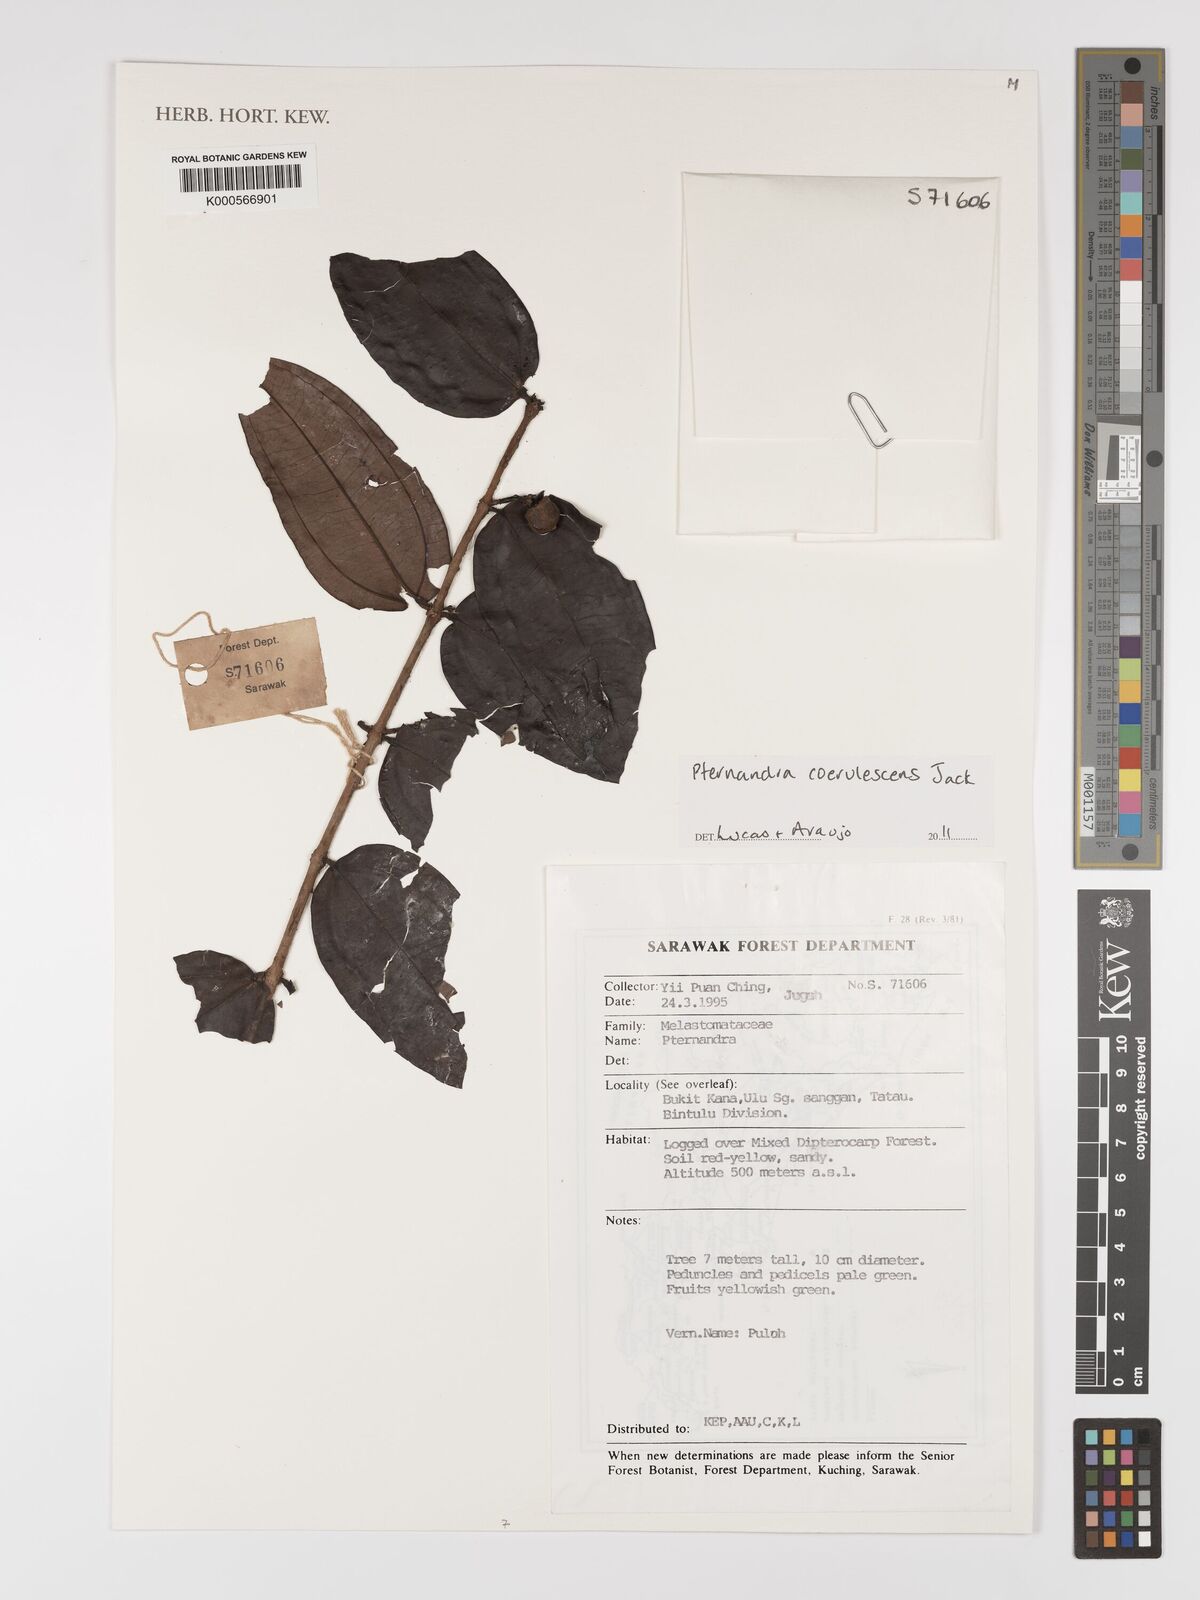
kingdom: Plantae
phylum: Tracheophyta
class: Magnoliopsida
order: Myrtales
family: Melastomataceae
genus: Pternandra
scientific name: Pternandra coerulescens
